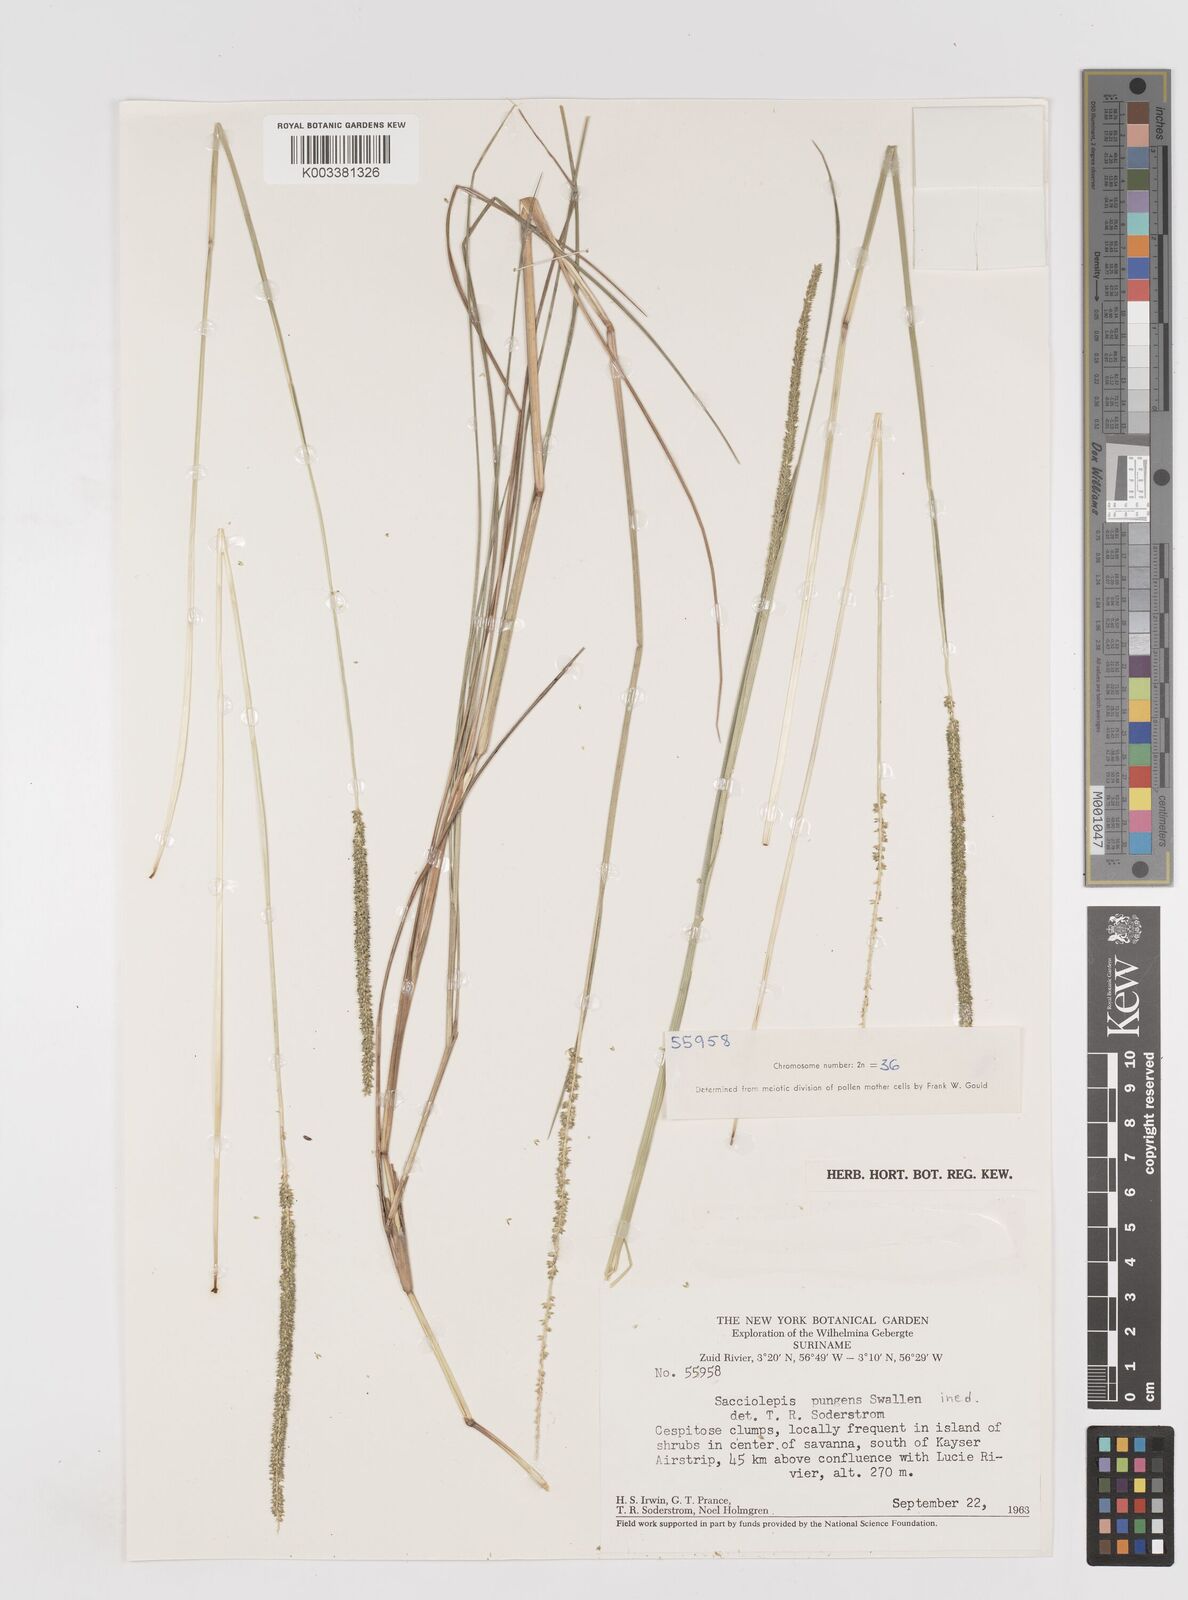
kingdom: Plantae
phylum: Tracheophyta
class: Liliopsida
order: Poales
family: Poaceae
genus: Sacciolepis
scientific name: Sacciolepis angustissima
